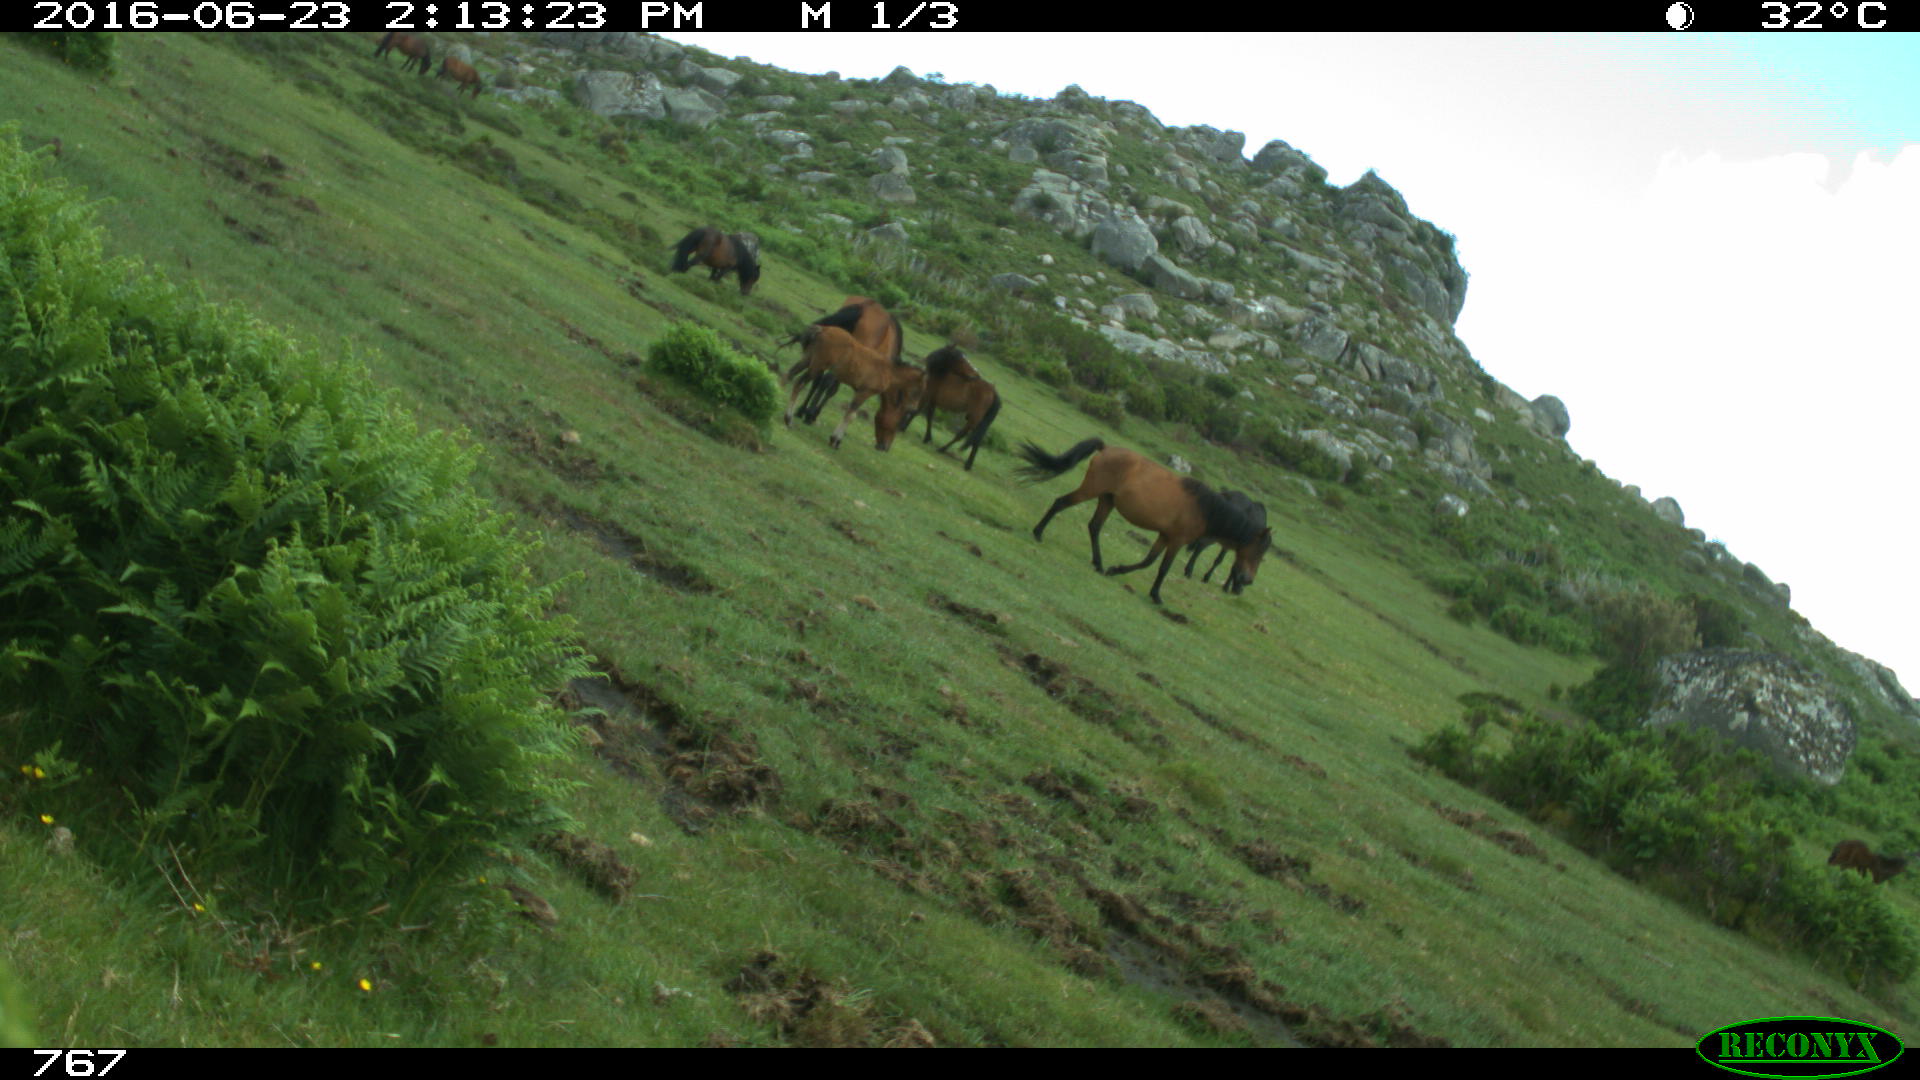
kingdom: Animalia
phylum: Chordata
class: Mammalia
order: Perissodactyla
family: Equidae
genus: Equus
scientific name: Equus caballus
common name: Horse
